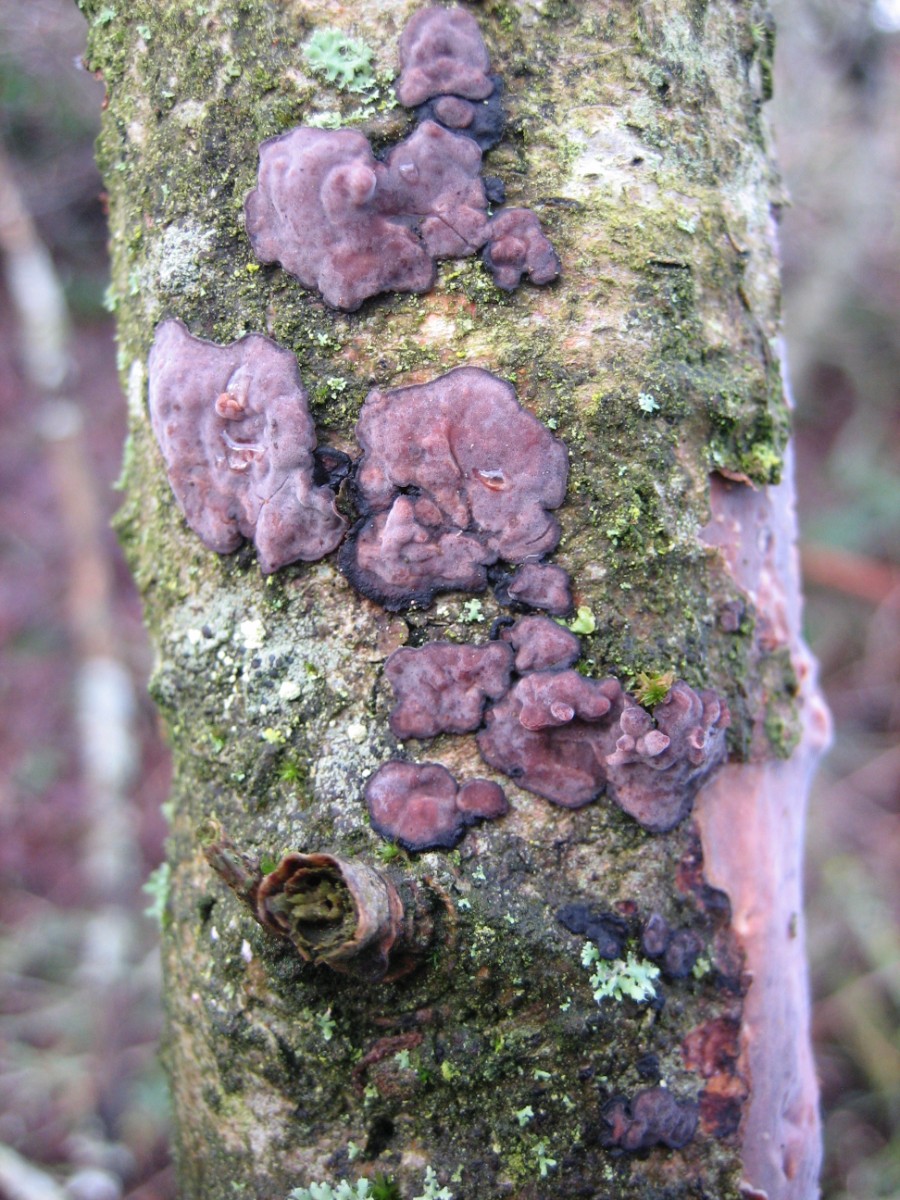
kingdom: Fungi
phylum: Basidiomycota
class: Agaricomycetes
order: Russulales
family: Peniophoraceae
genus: Peniophora
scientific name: Peniophora quercina
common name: ege-voksskind
